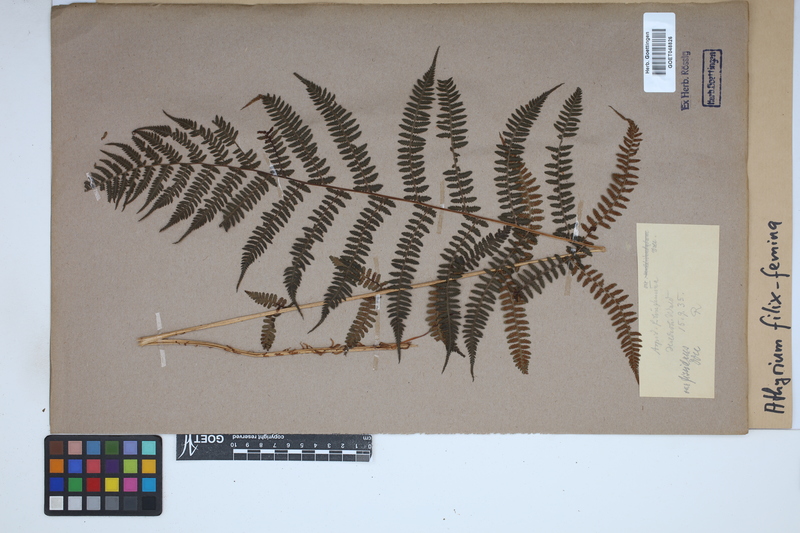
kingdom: Plantae
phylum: Tracheophyta
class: Polypodiopsida
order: Polypodiales
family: Athyriaceae
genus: Athyrium
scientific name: Athyrium filix-femina
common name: Lady fern
